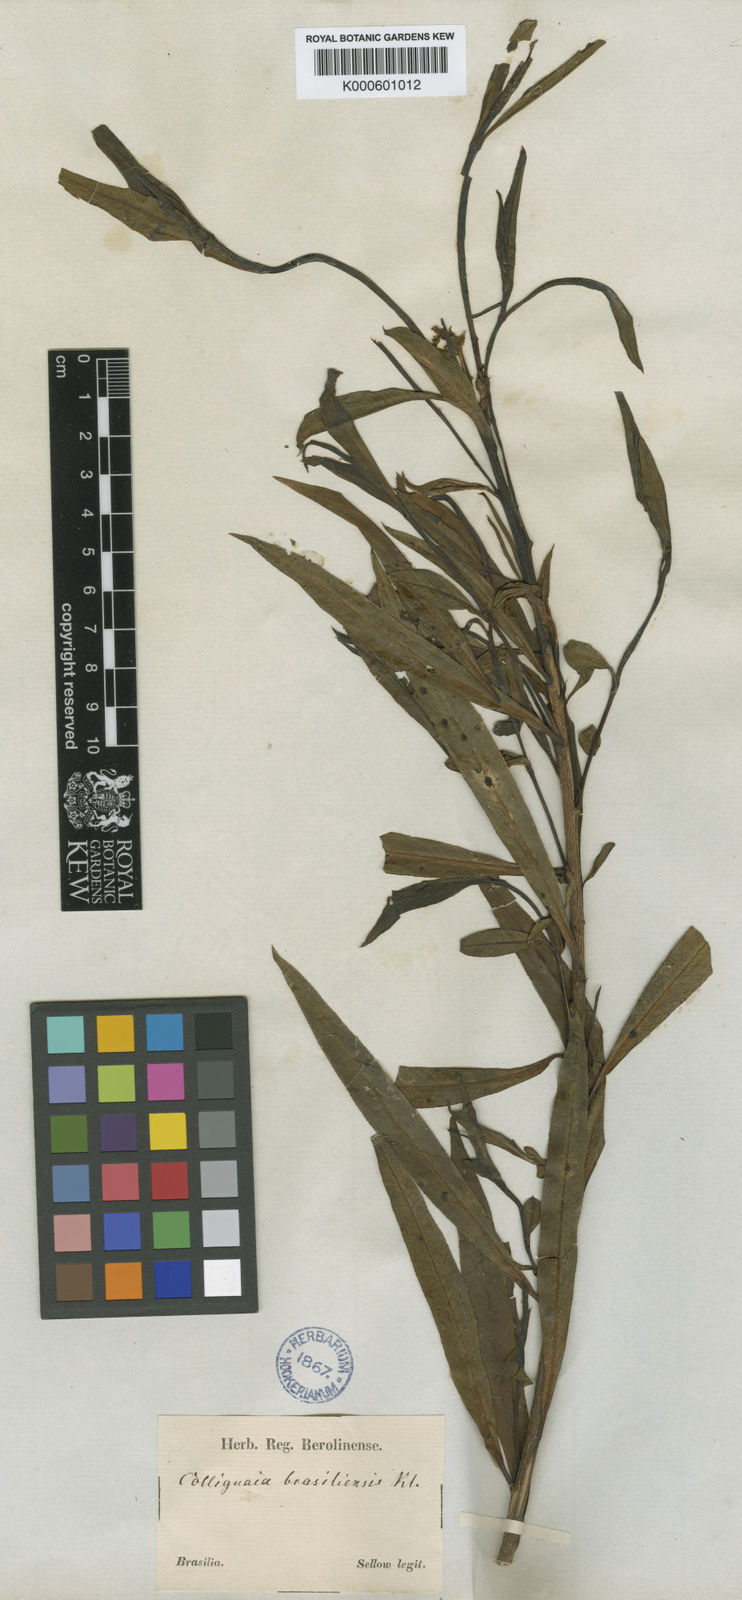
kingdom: Plantae
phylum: Tracheophyta
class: Magnoliopsida
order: Malpighiales
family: Euphorbiaceae
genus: Colliguaja
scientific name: Colliguaja brasillensis
